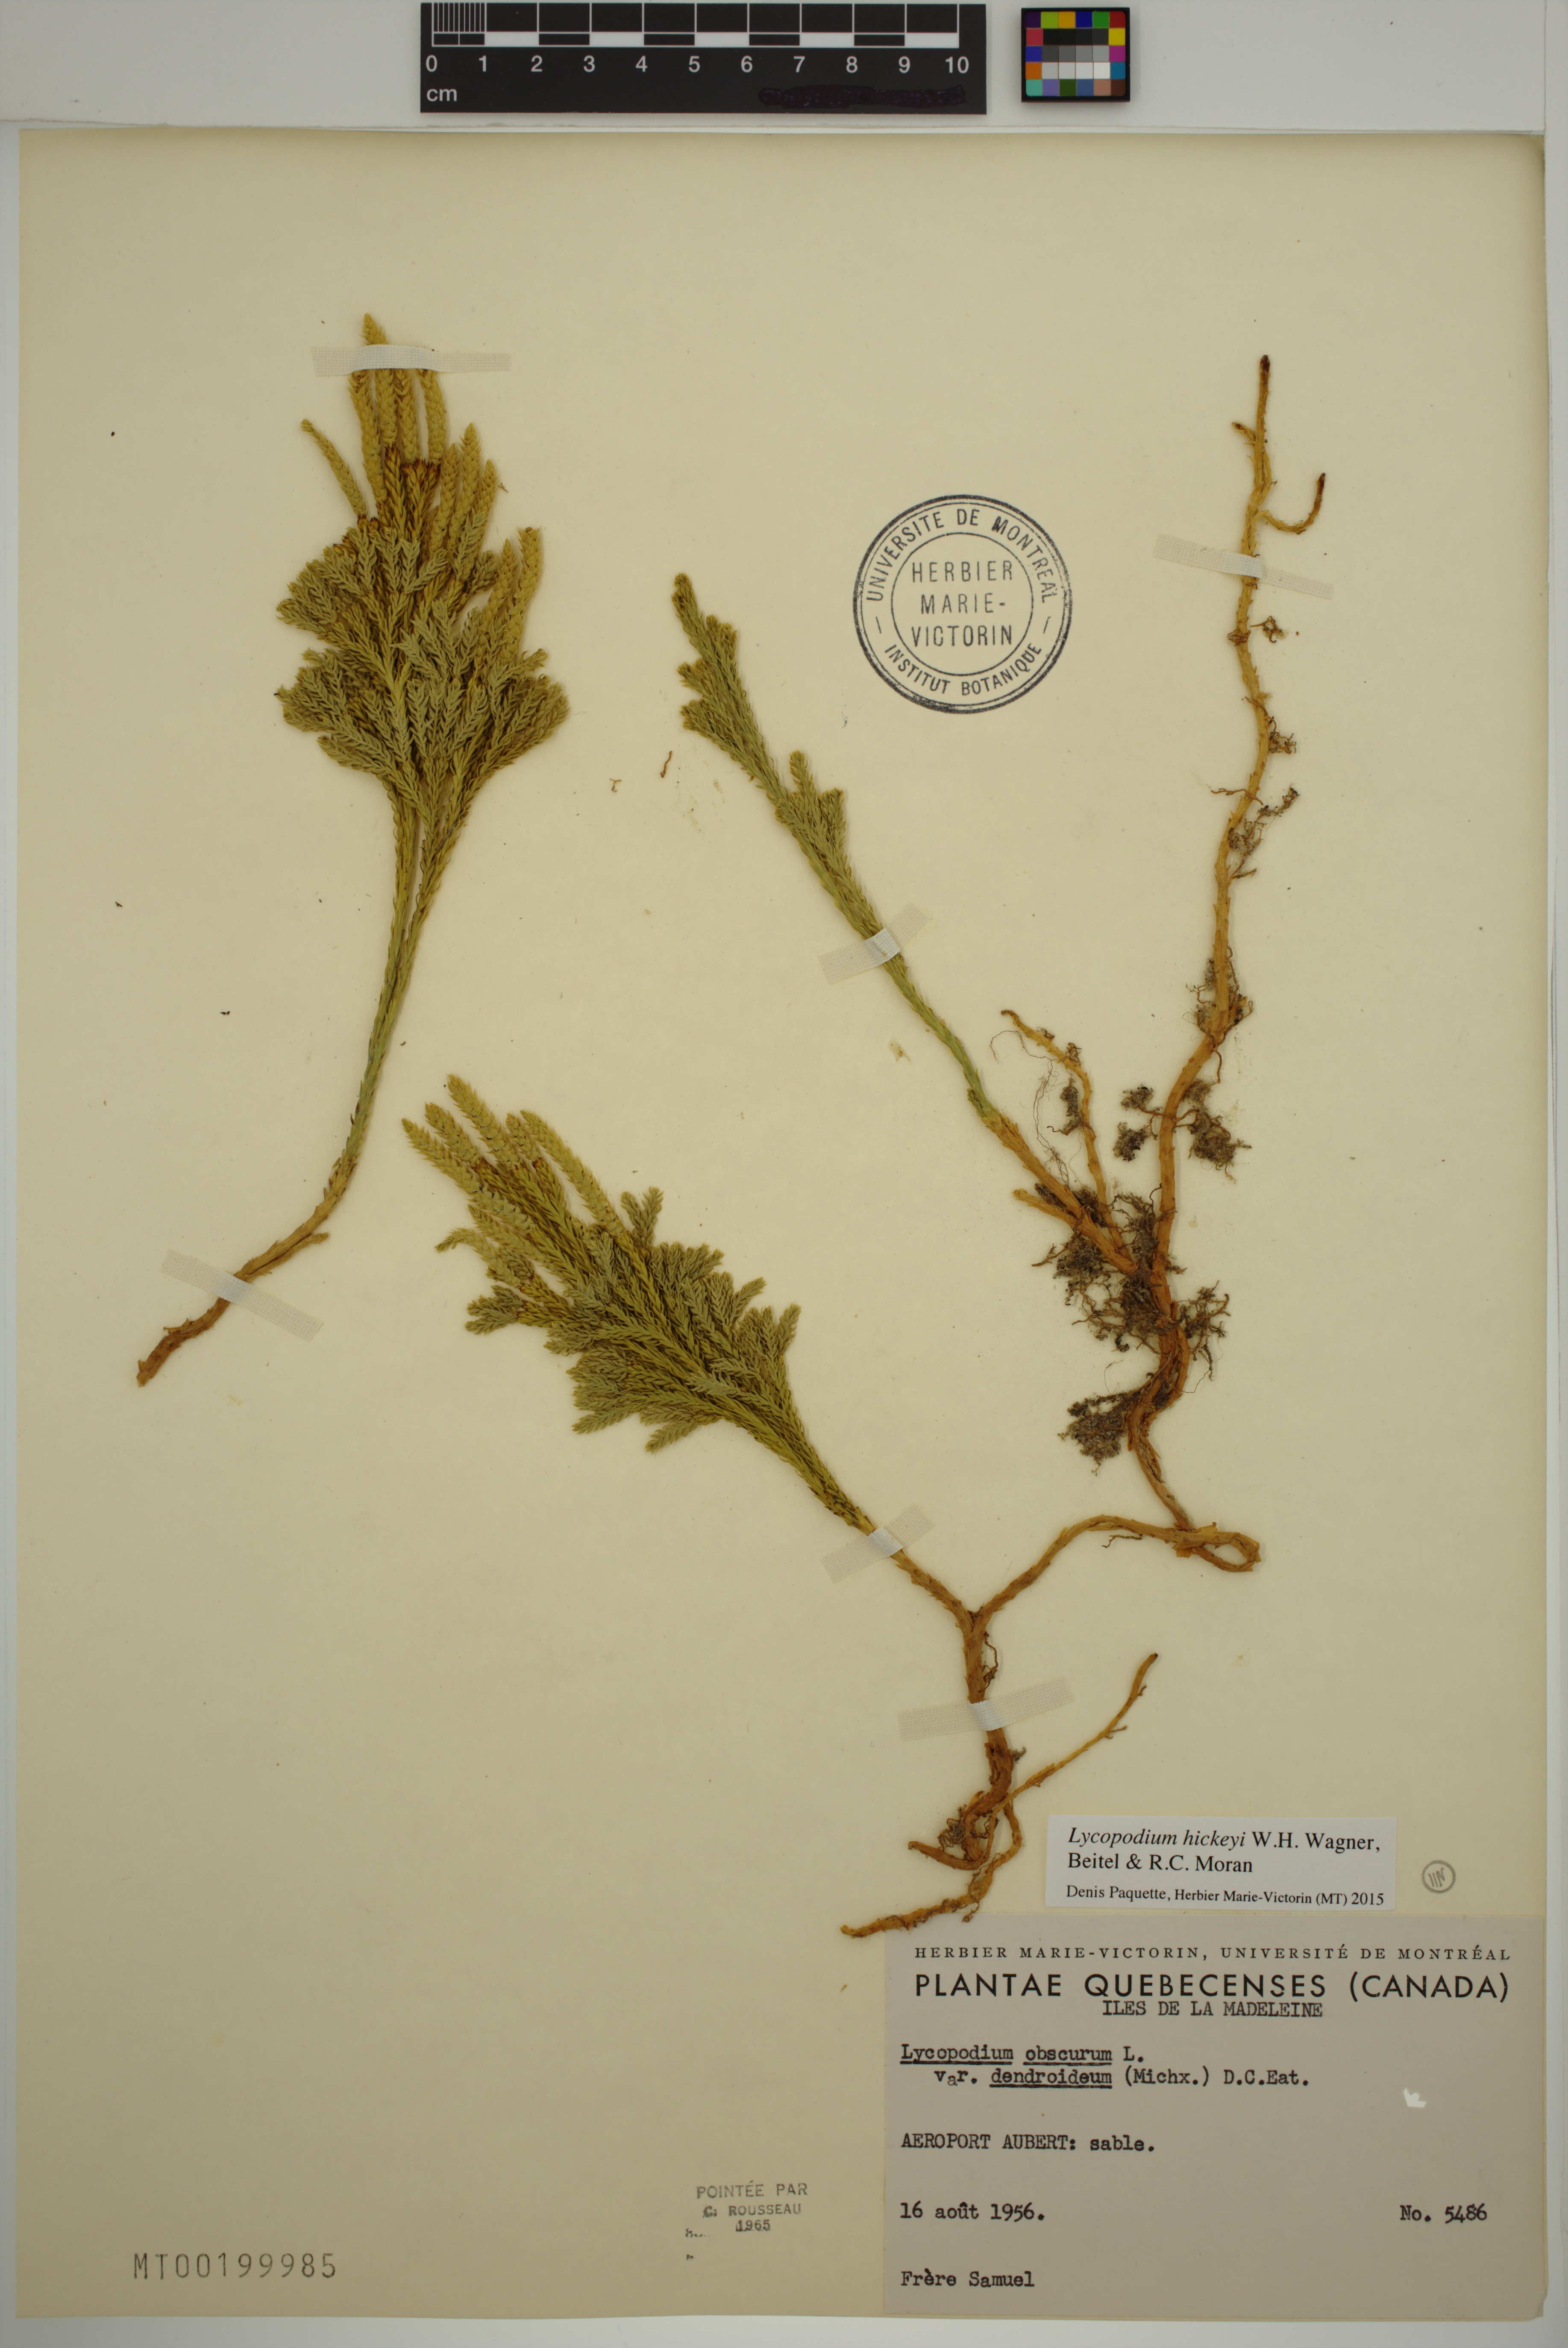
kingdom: Plantae
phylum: Tracheophyta
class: Lycopodiopsida
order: Lycopodiales
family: Lycopodiaceae
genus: Dendrolycopodium
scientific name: Dendrolycopodium hickeyi
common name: Hickey's clubmoss
